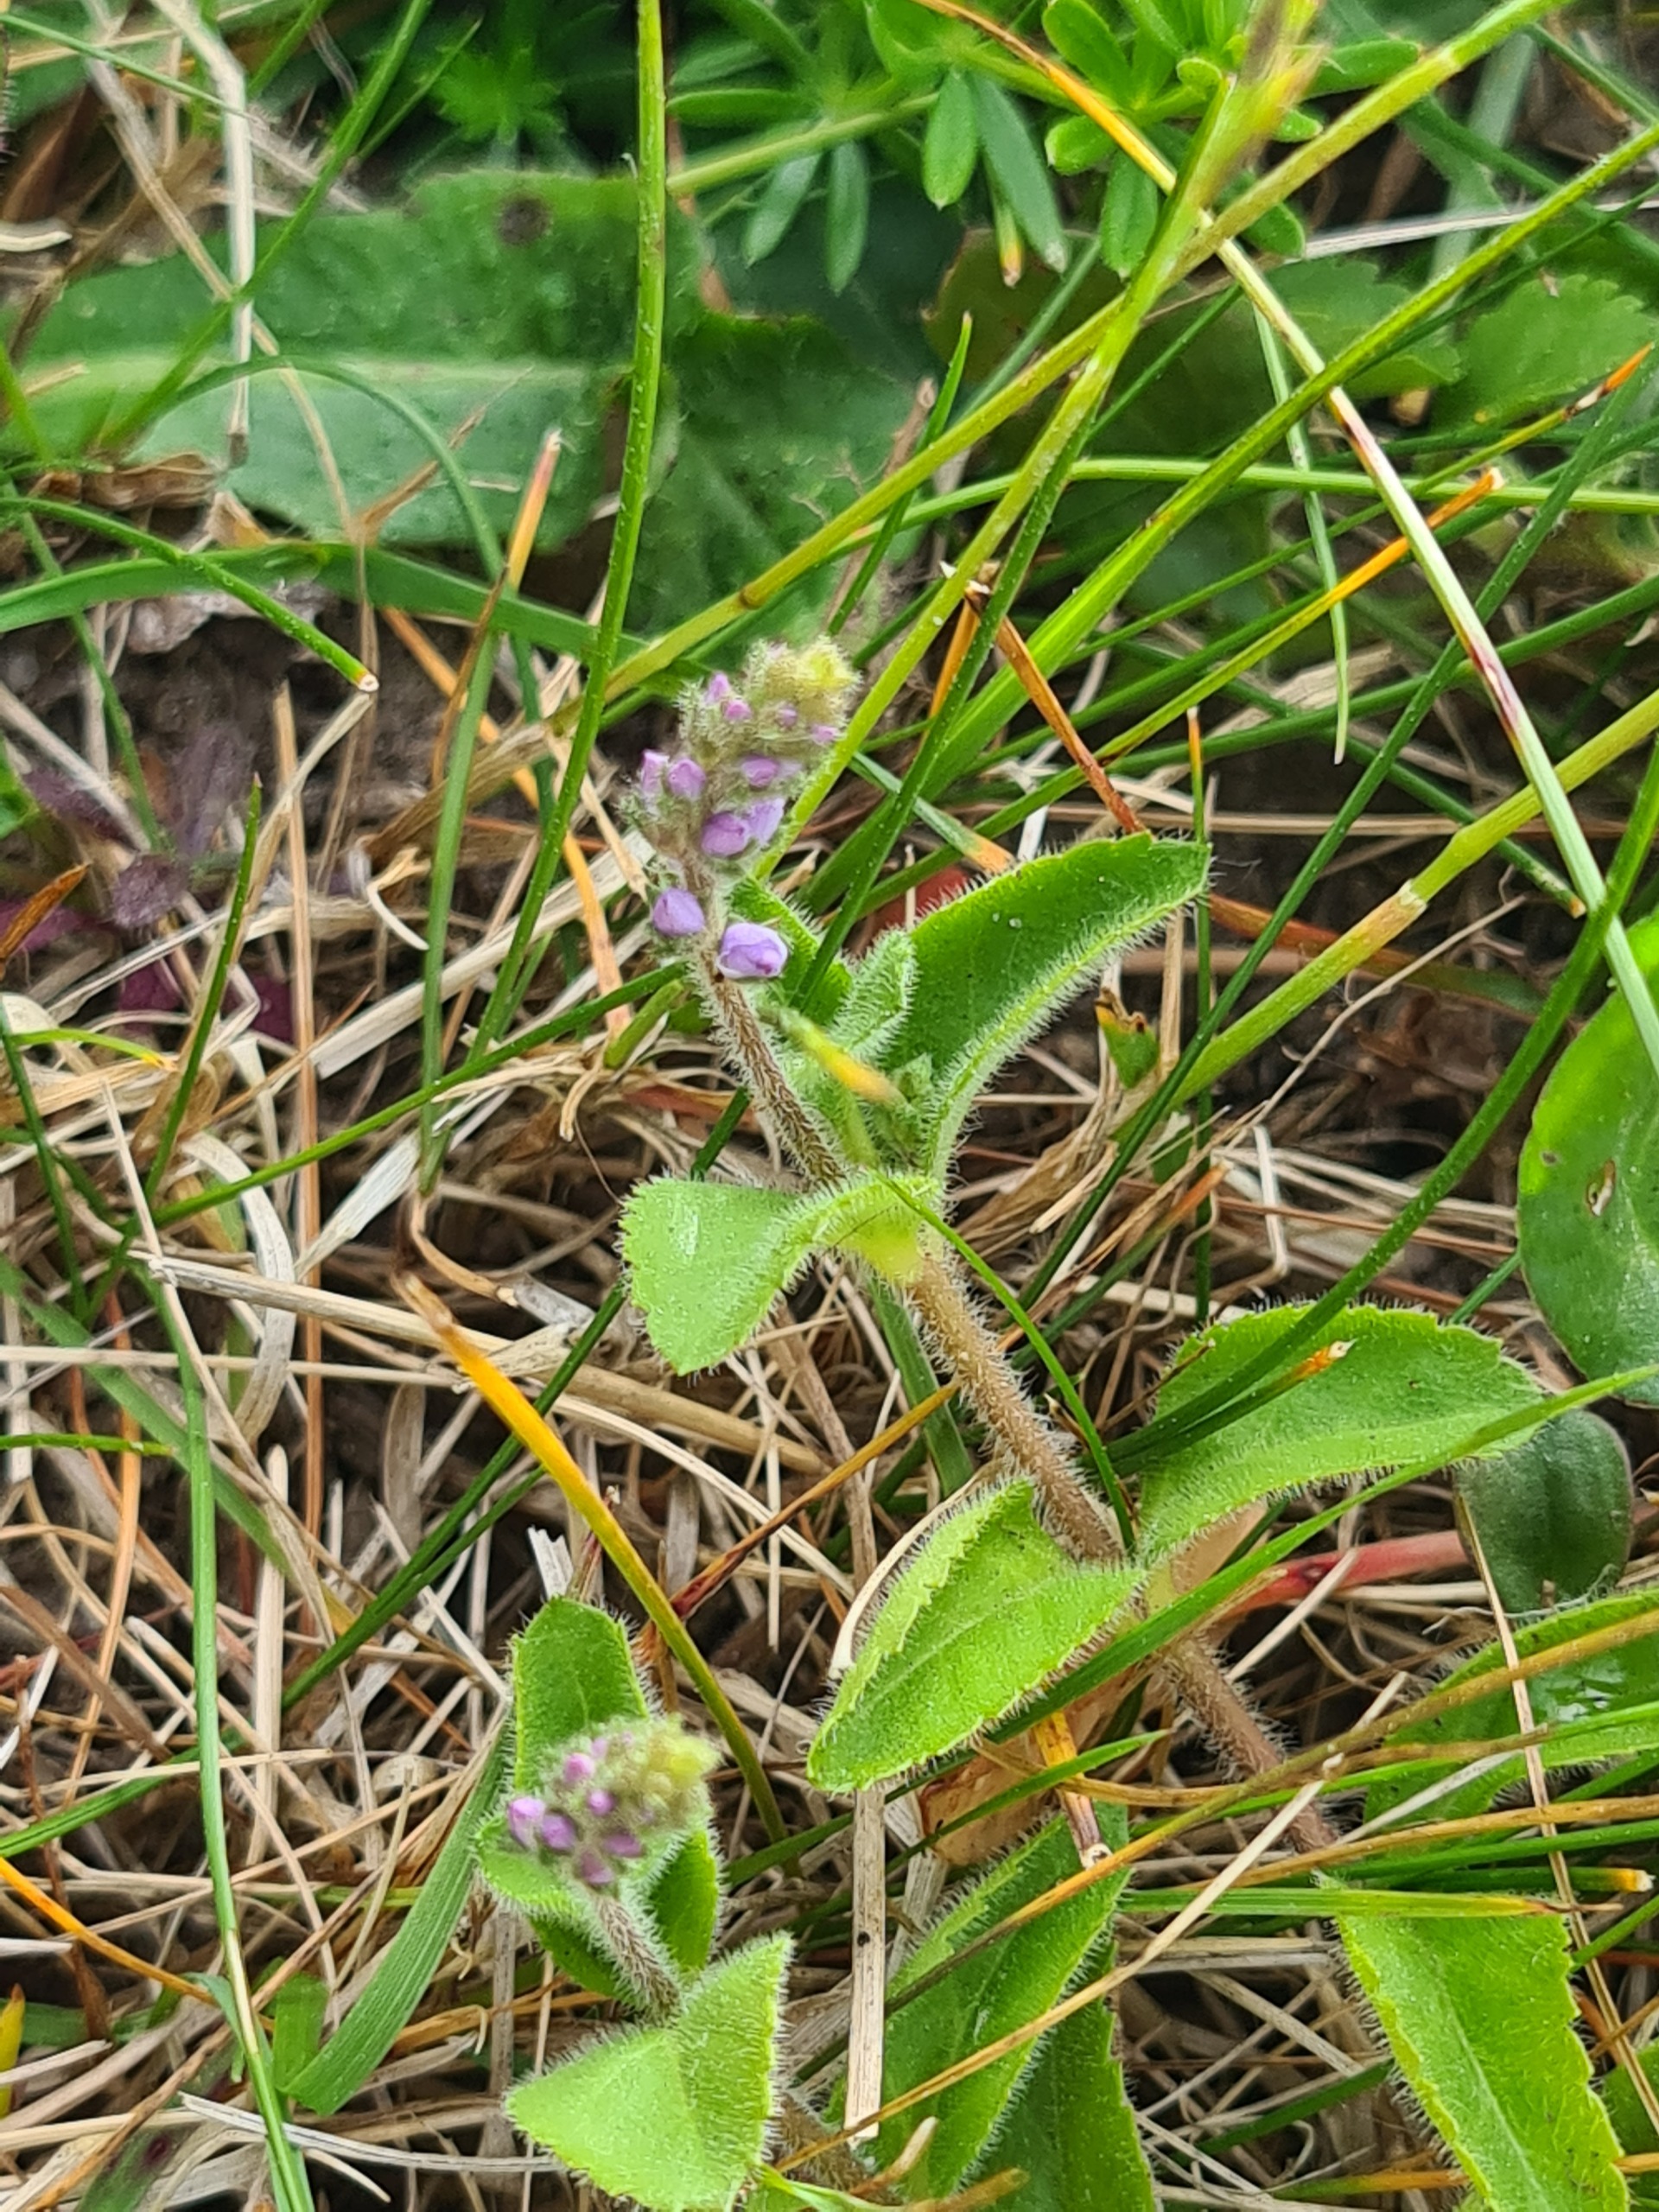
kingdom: Plantae
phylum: Tracheophyta
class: Magnoliopsida
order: Lamiales
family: Plantaginaceae
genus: Veronica
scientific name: Veronica officinalis
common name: Læge-ærenpris
